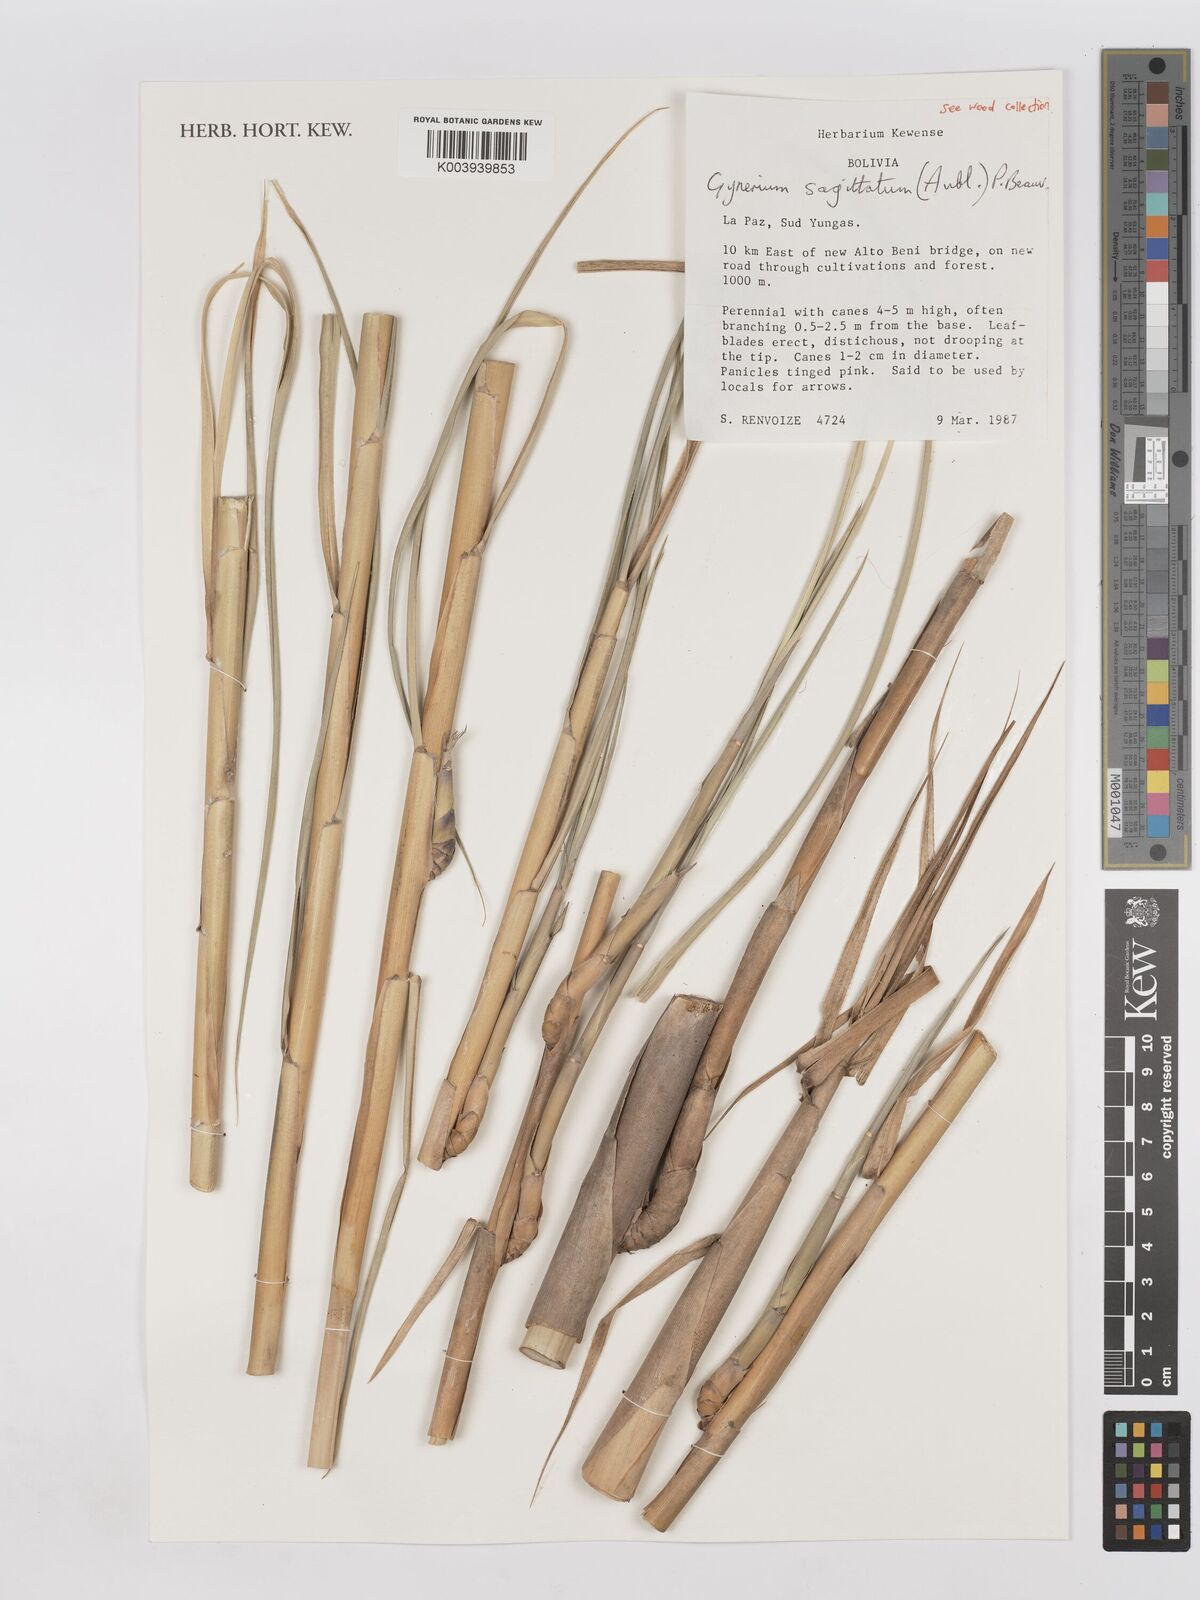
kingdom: Plantae
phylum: Tracheophyta
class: Liliopsida
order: Poales
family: Poaceae
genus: Gynerium
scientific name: Gynerium sagittatum
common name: Wild cane
